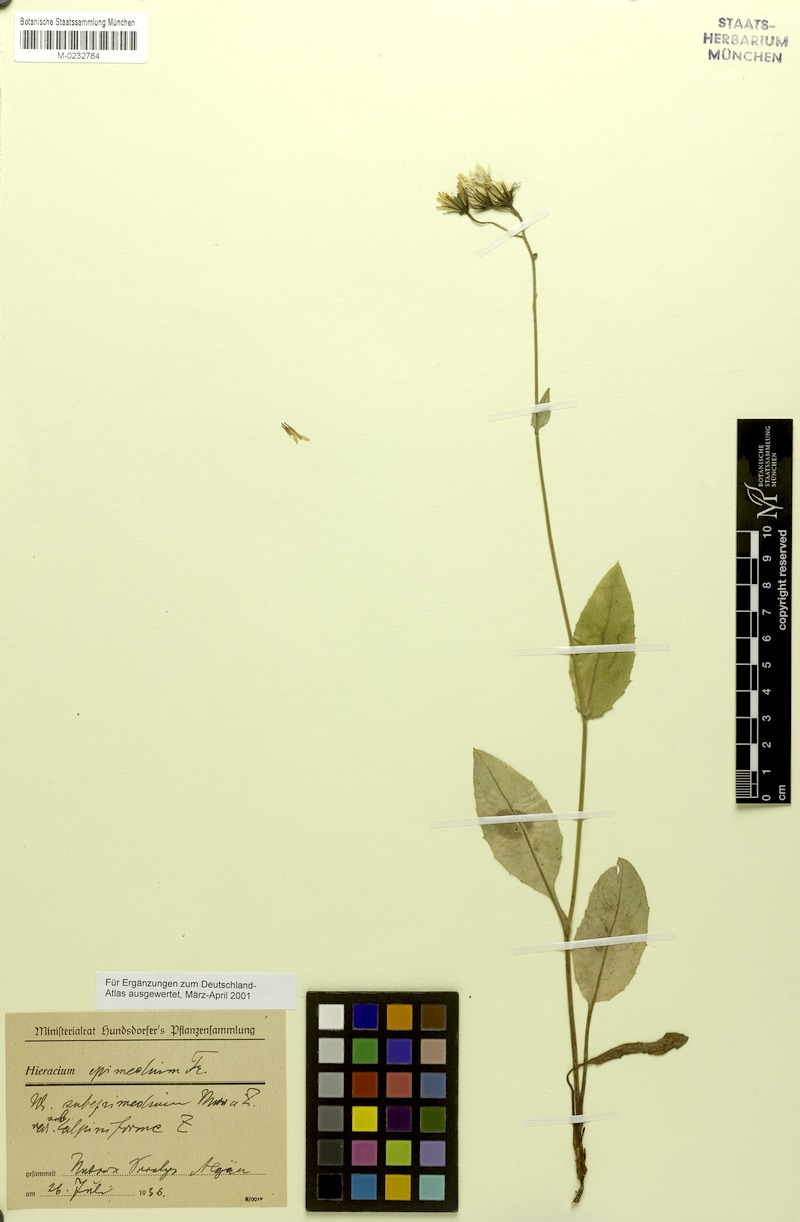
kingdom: Plantae
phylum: Tracheophyta
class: Magnoliopsida
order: Asterales
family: Asteraceae
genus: Hieracium
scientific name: Hieracium froelichianum
